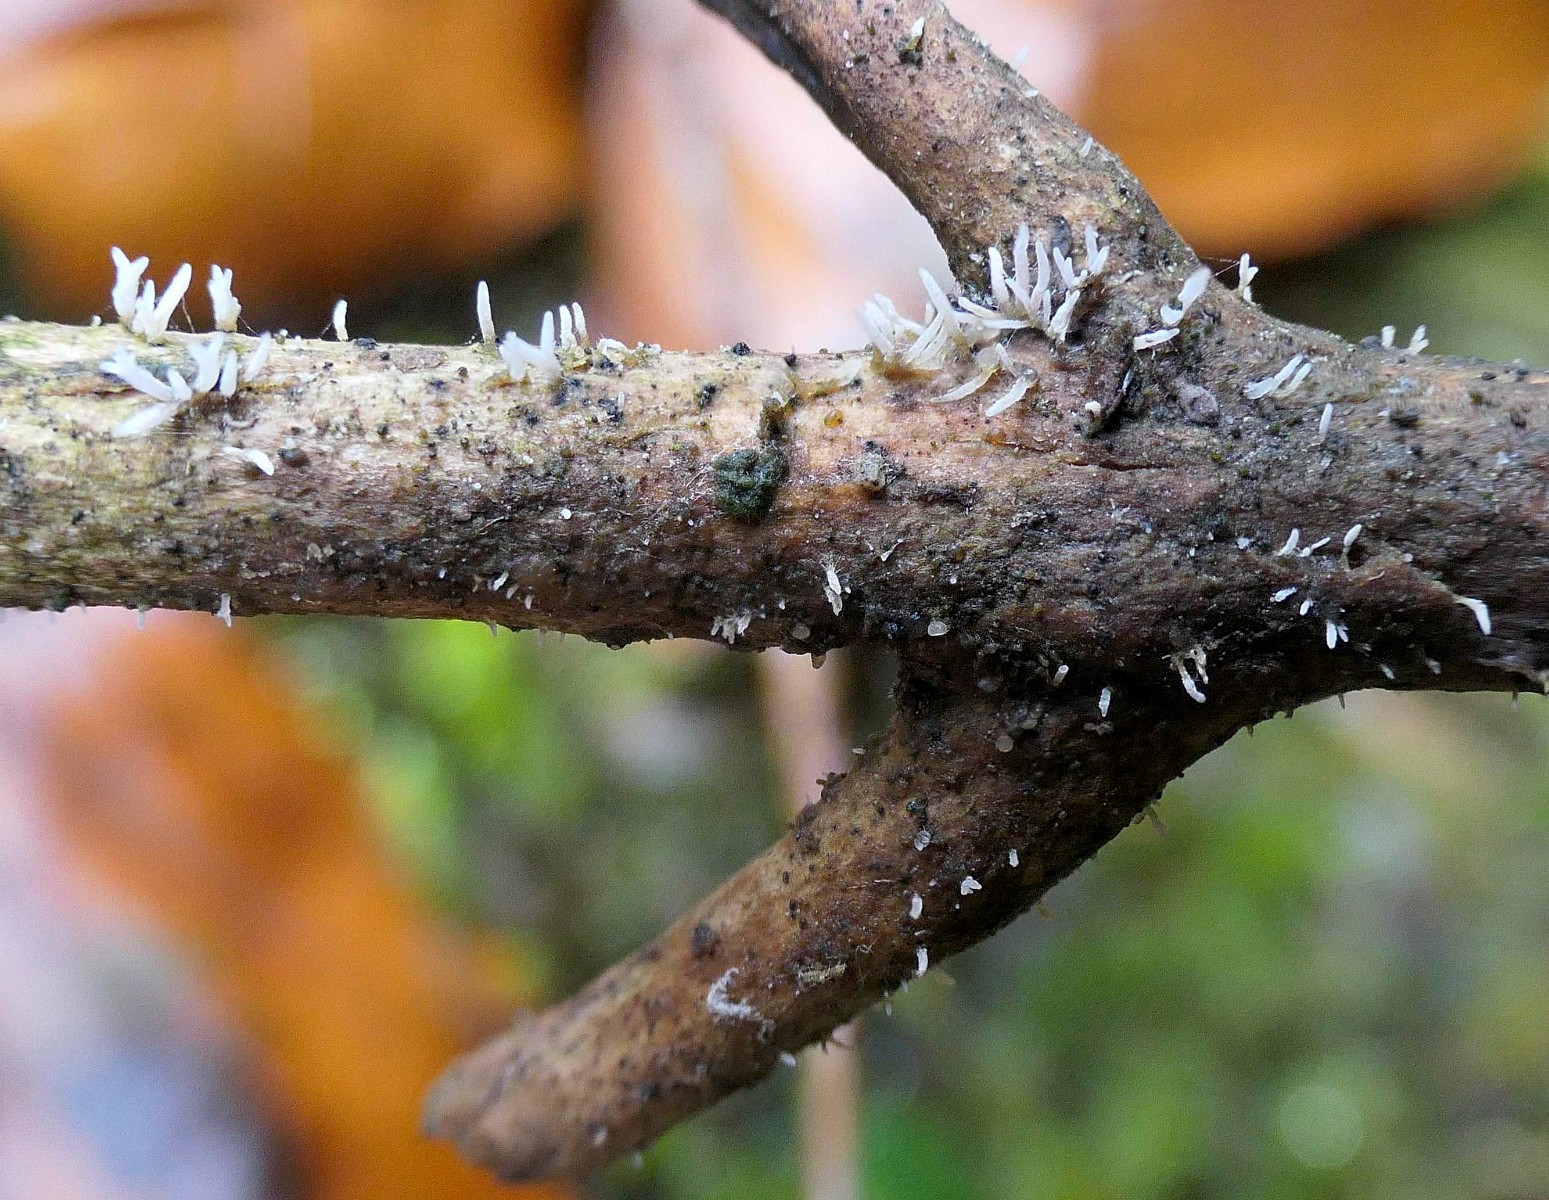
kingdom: Fungi
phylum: Basidiomycota
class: Agaricomycetes
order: Agaricales
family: Typhulaceae
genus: Typhula
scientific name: Typhula spathulata
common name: aske-trådkølle
